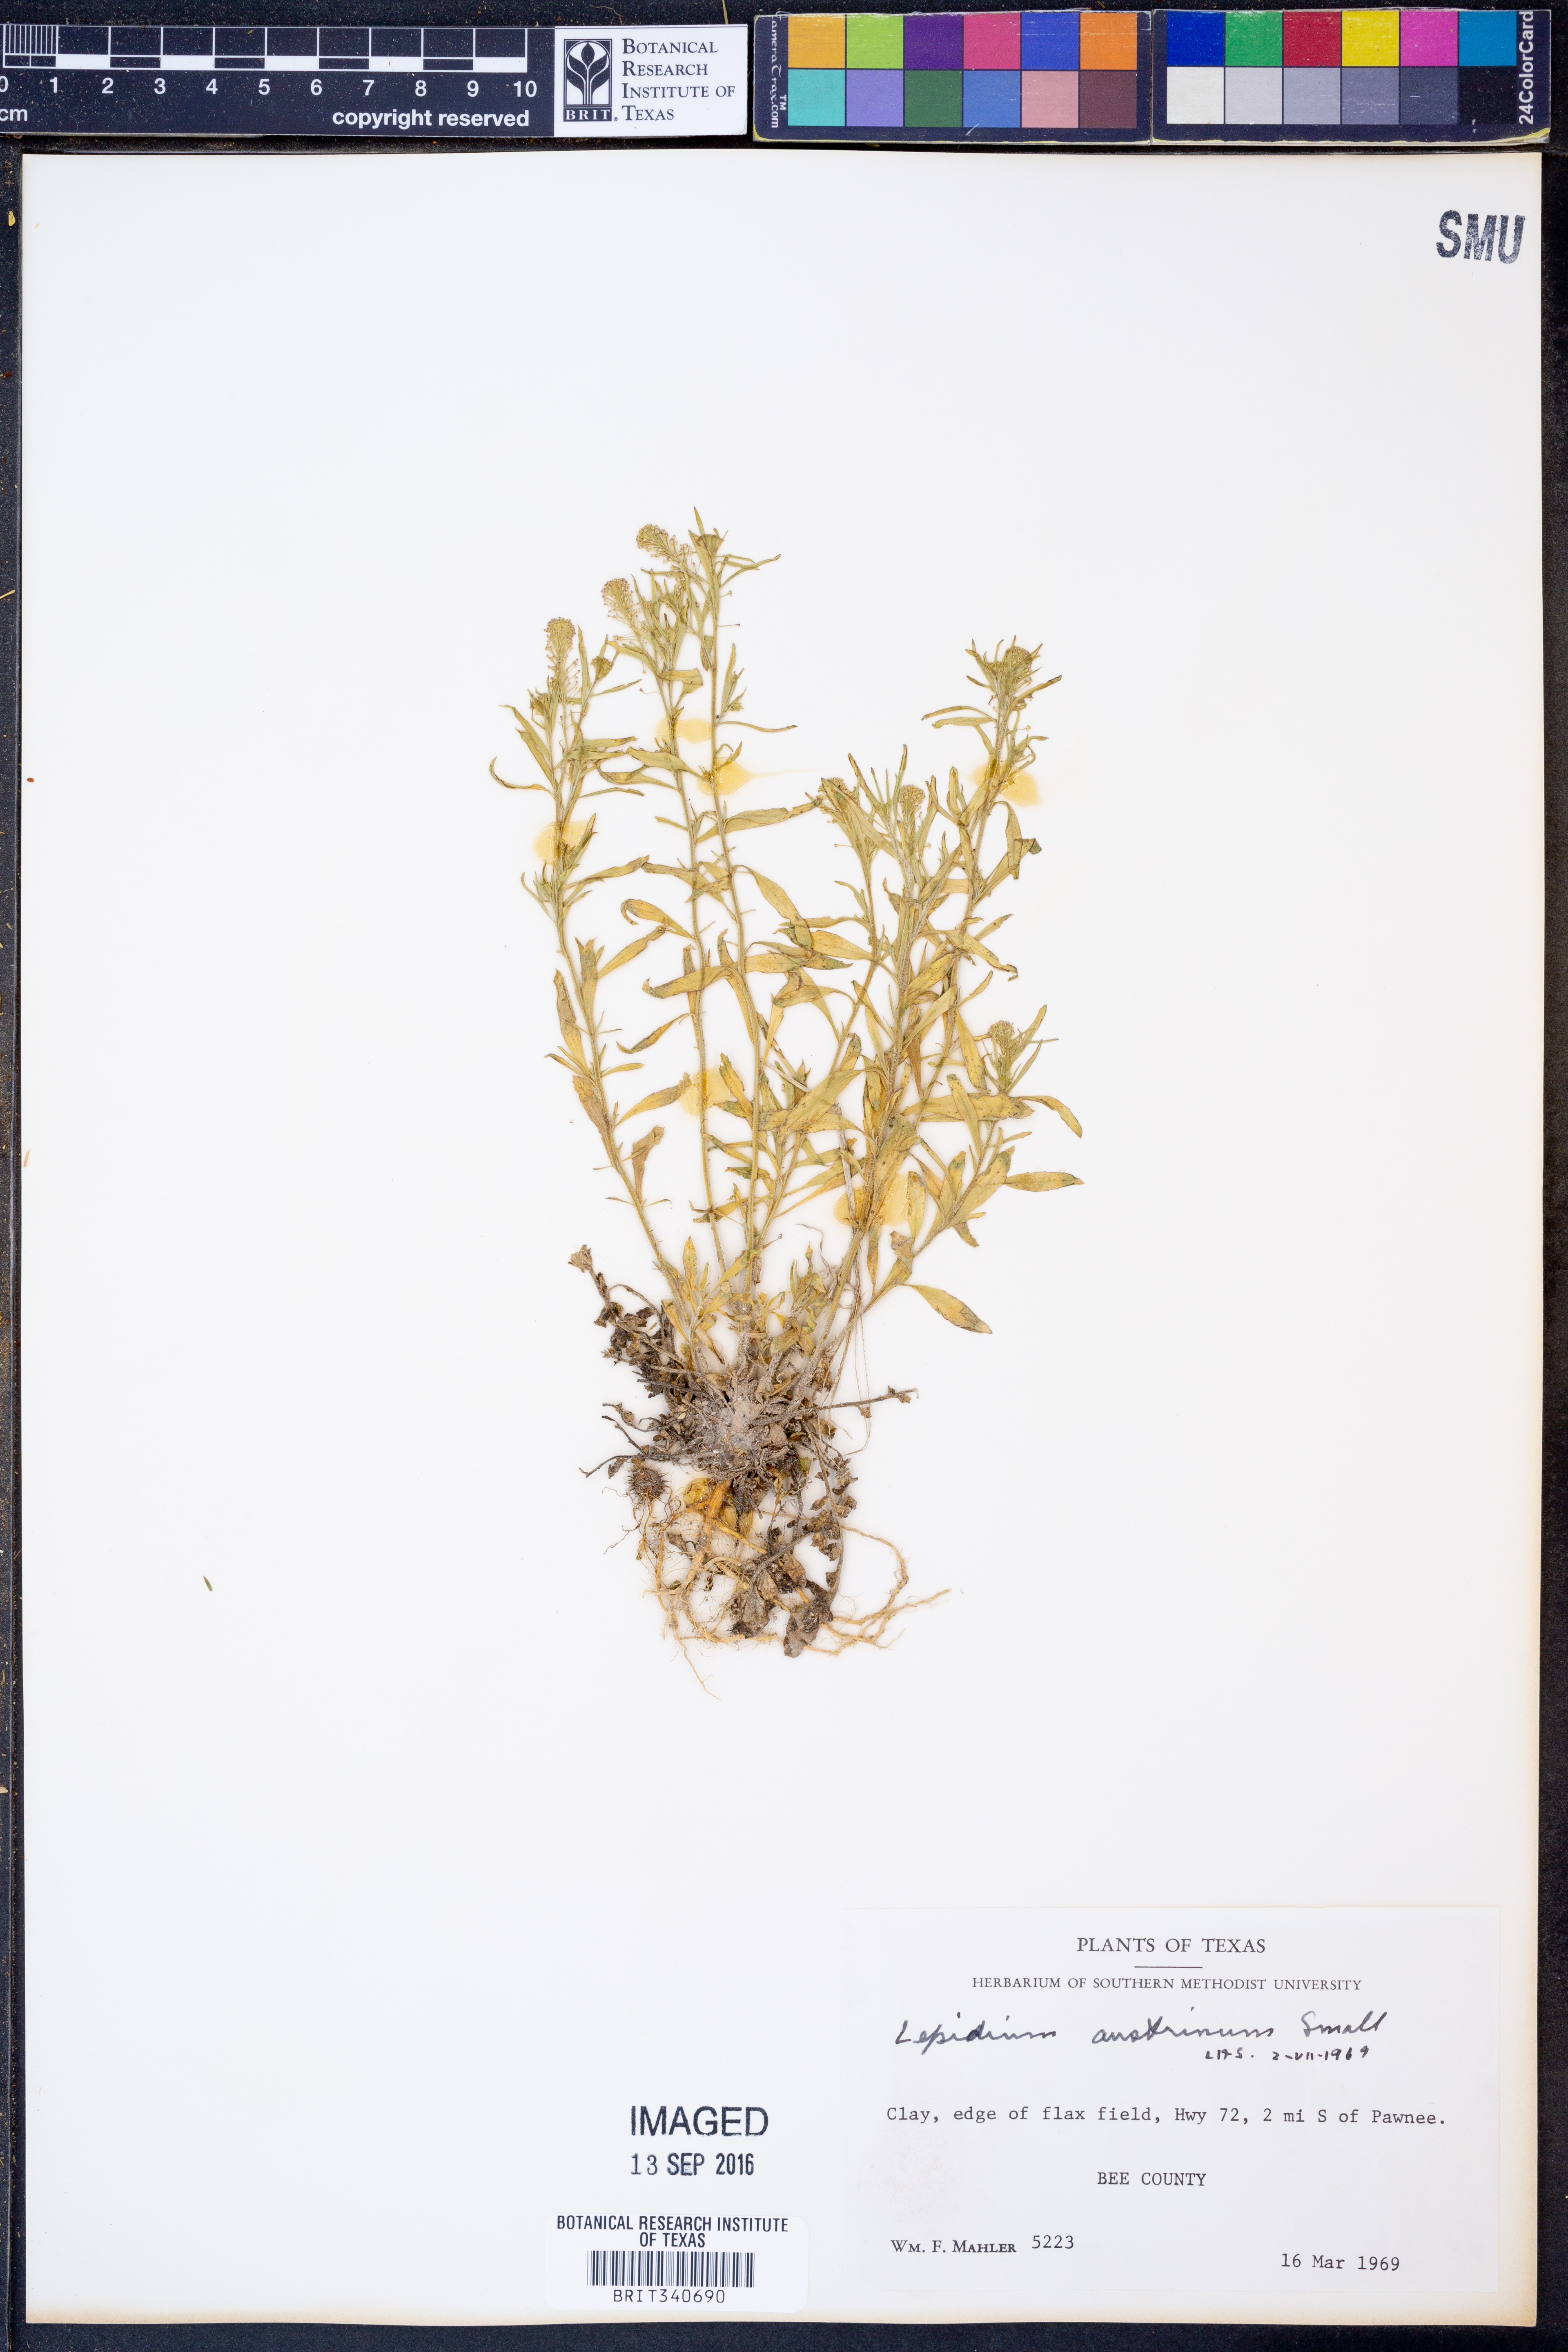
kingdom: Plantae
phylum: Tracheophyta
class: Magnoliopsida
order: Brassicales
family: Brassicaceae
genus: Lepidium
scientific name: Lepidium austrinum
